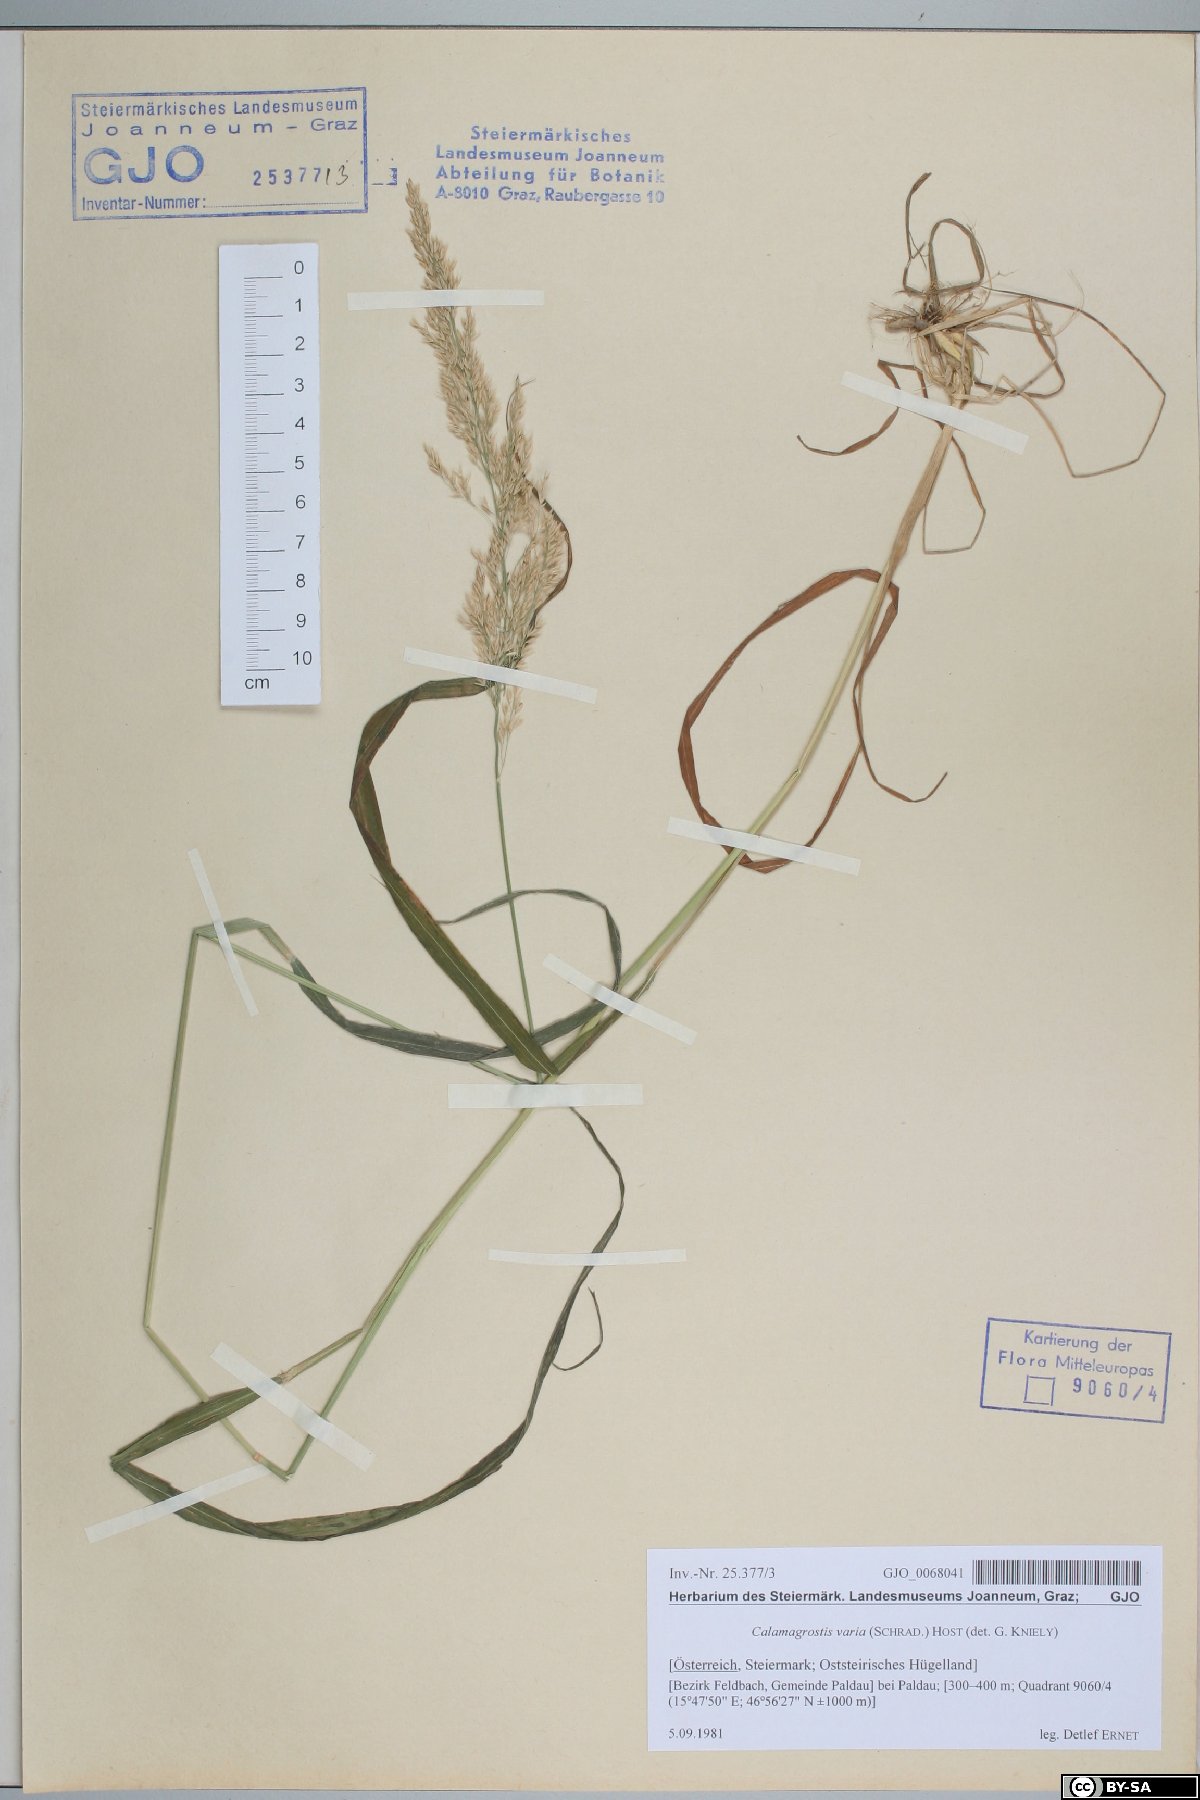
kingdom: Plantae
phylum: Tracheophyta
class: Liliopsida
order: Poales
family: Poaceae
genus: Calamagrostis
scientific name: Calamagrostis varia
